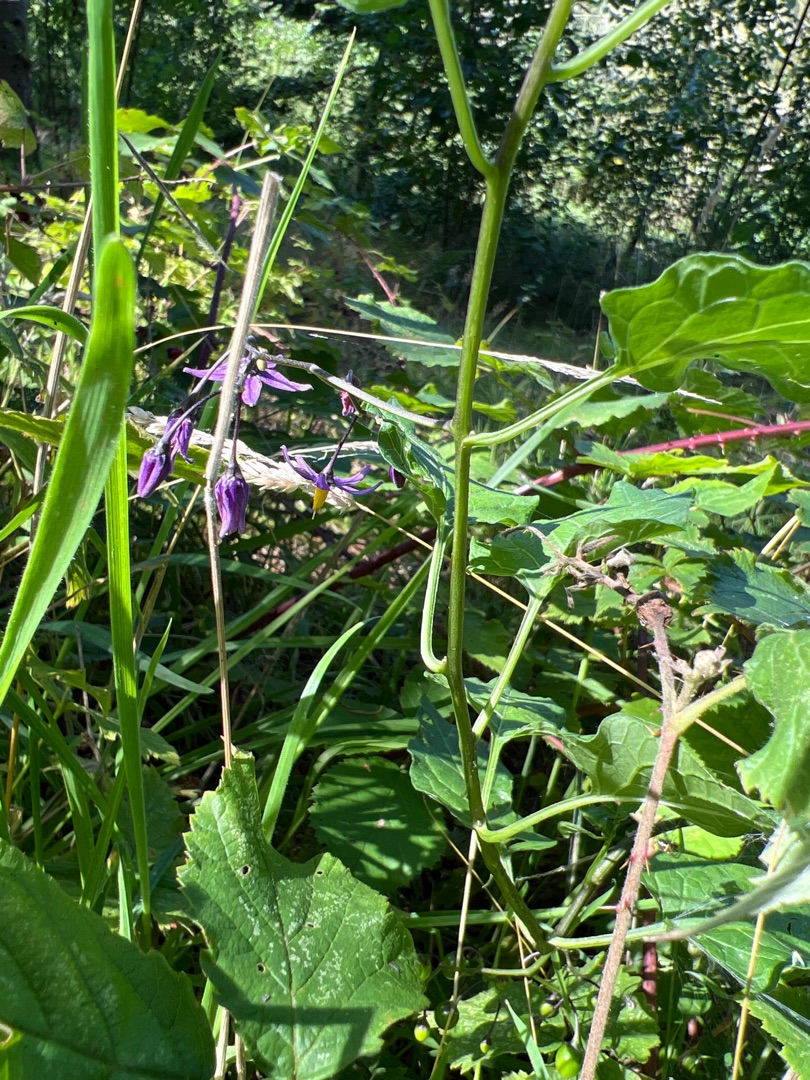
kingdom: Plantae
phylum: Tracheophyta
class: Magnoliopsida
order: Solanales
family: Solanaceae
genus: Solanum
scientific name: Solanum dulcamara
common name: Bittersød natskygge
